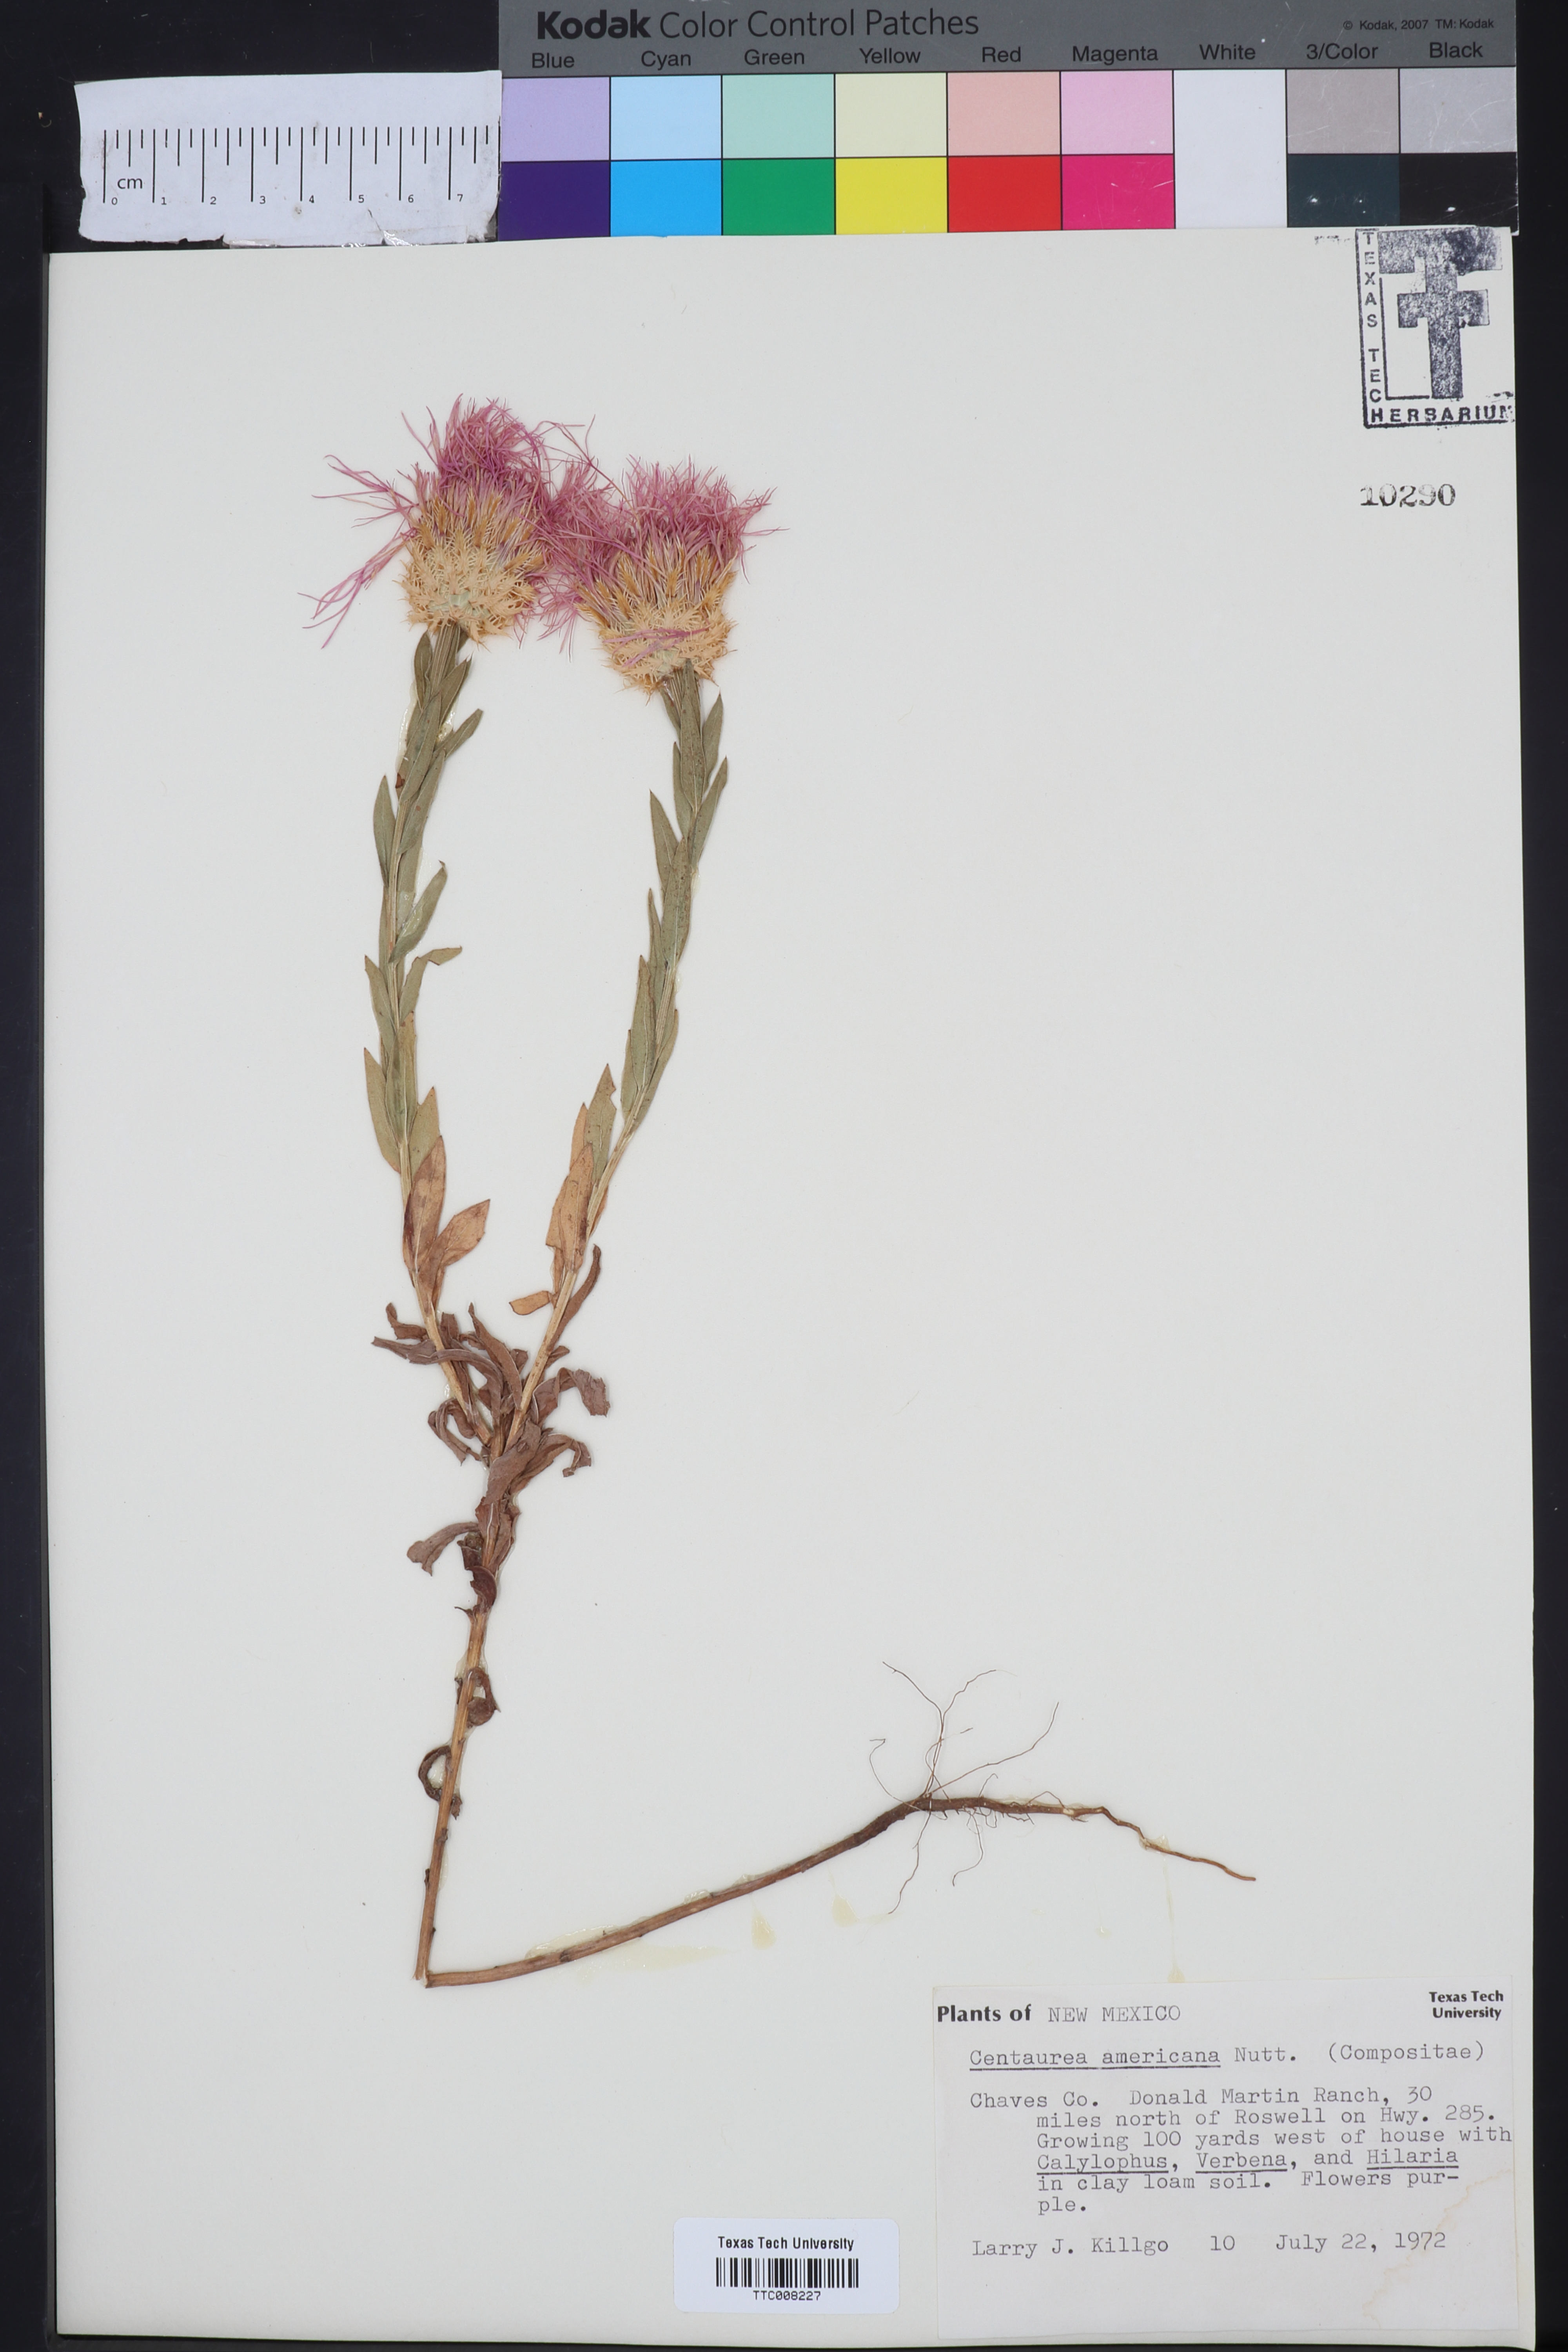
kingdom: Plantae
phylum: Tracheophyta
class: Magnoliopsida
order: Asterales
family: Asteraceae
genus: Plectocephalus
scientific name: Plectocephalus americanus
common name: American basket-flower
